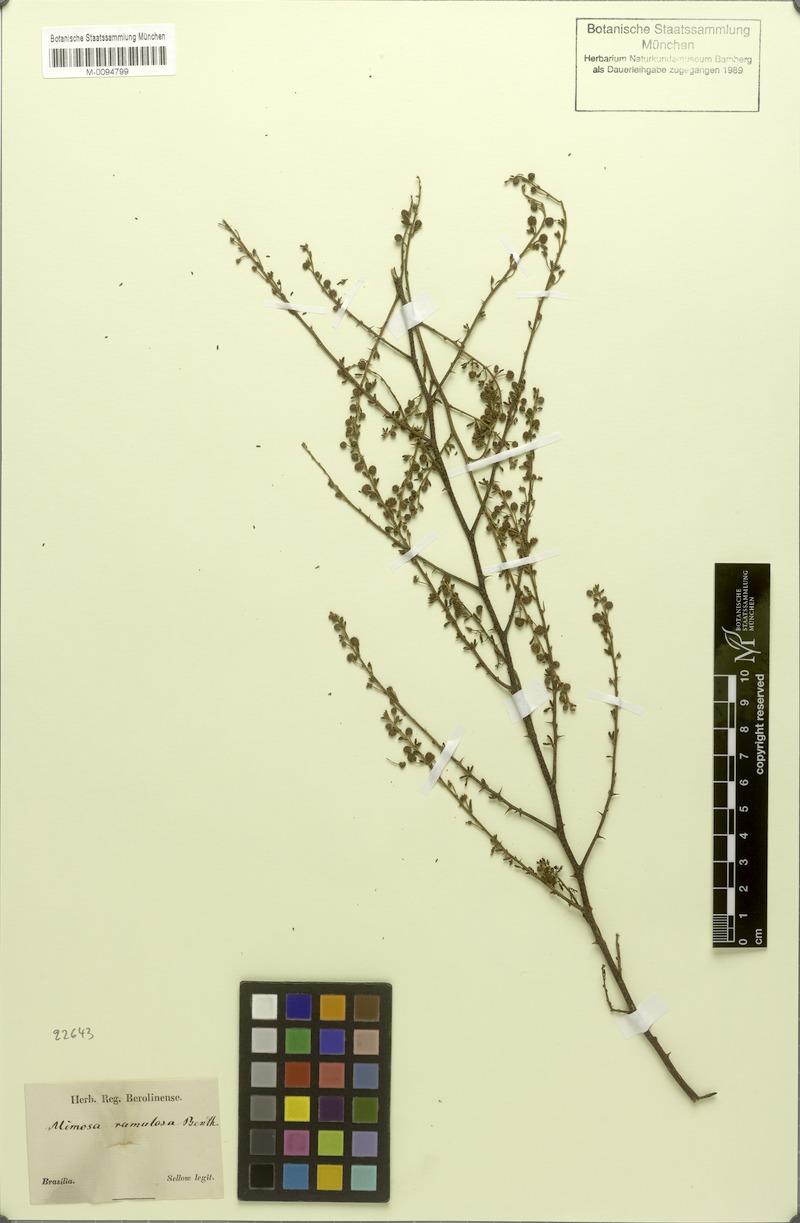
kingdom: Plantae
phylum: Tracheophyta
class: Magnoliopsida
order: Fabales
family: Fabaceae
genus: Mimosa
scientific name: Mimosa ramulosa
